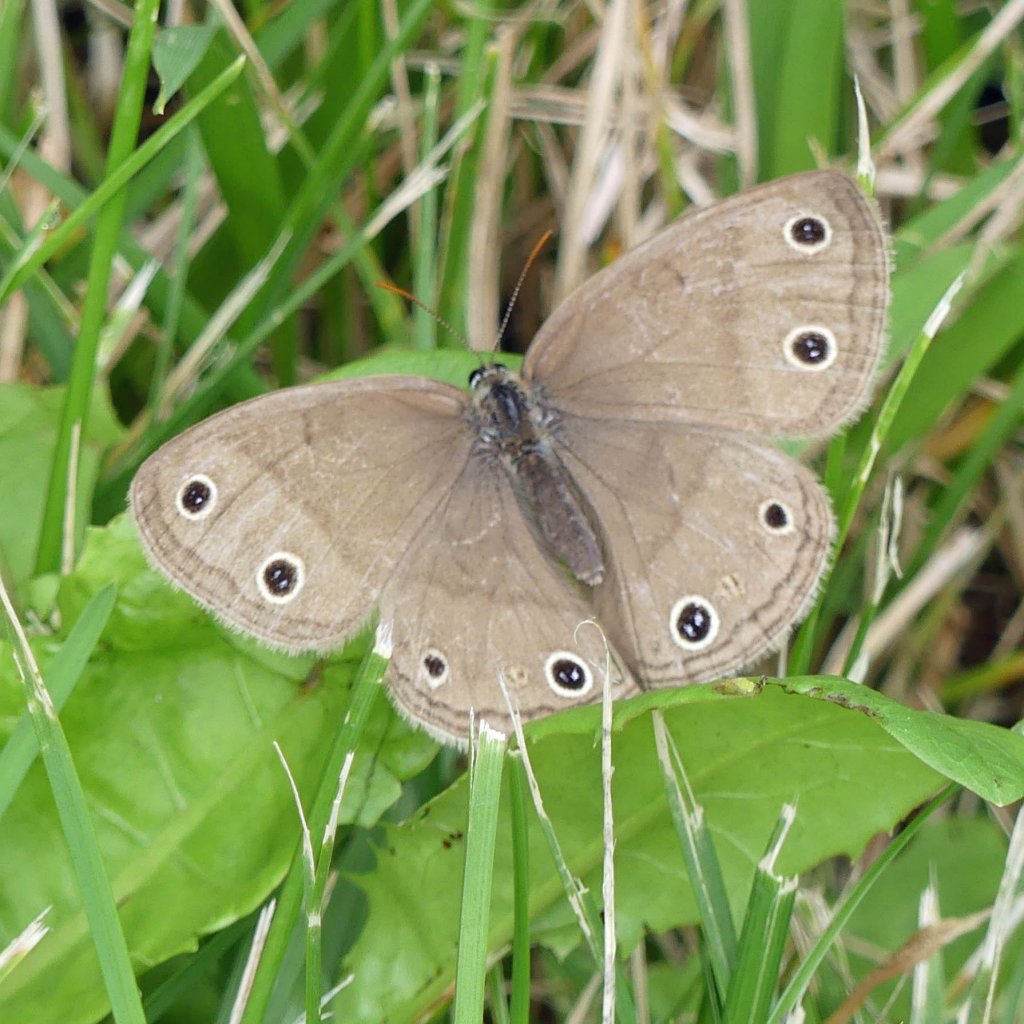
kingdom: Animalia
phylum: Arthropoda
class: Insecta
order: Lepidoptera
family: Nymphalidae
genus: Euptychia
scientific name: Euptychia cymela
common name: Little Wood Satyr
